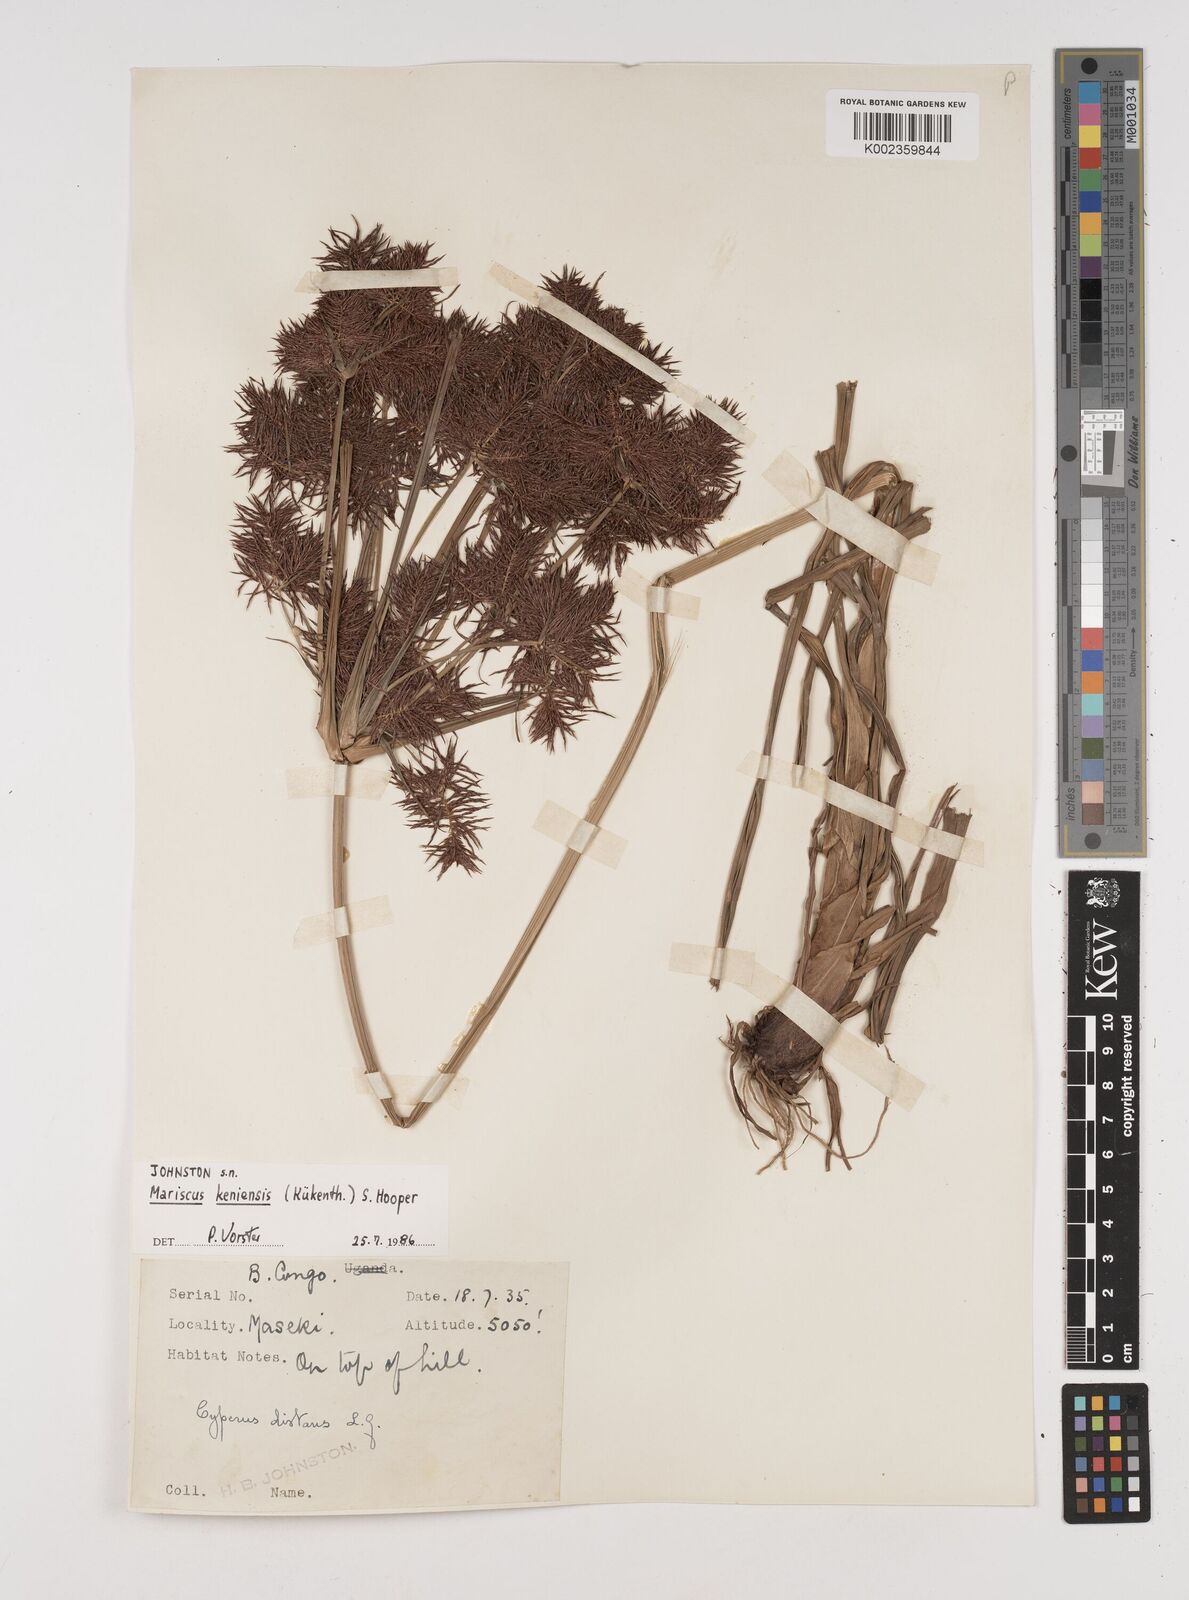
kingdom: Plantae
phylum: Tracheophyta
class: Liliopsida
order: Poales
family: Cyperaceae
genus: Cyperus
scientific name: Cyperus distans
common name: Slender cyperus
